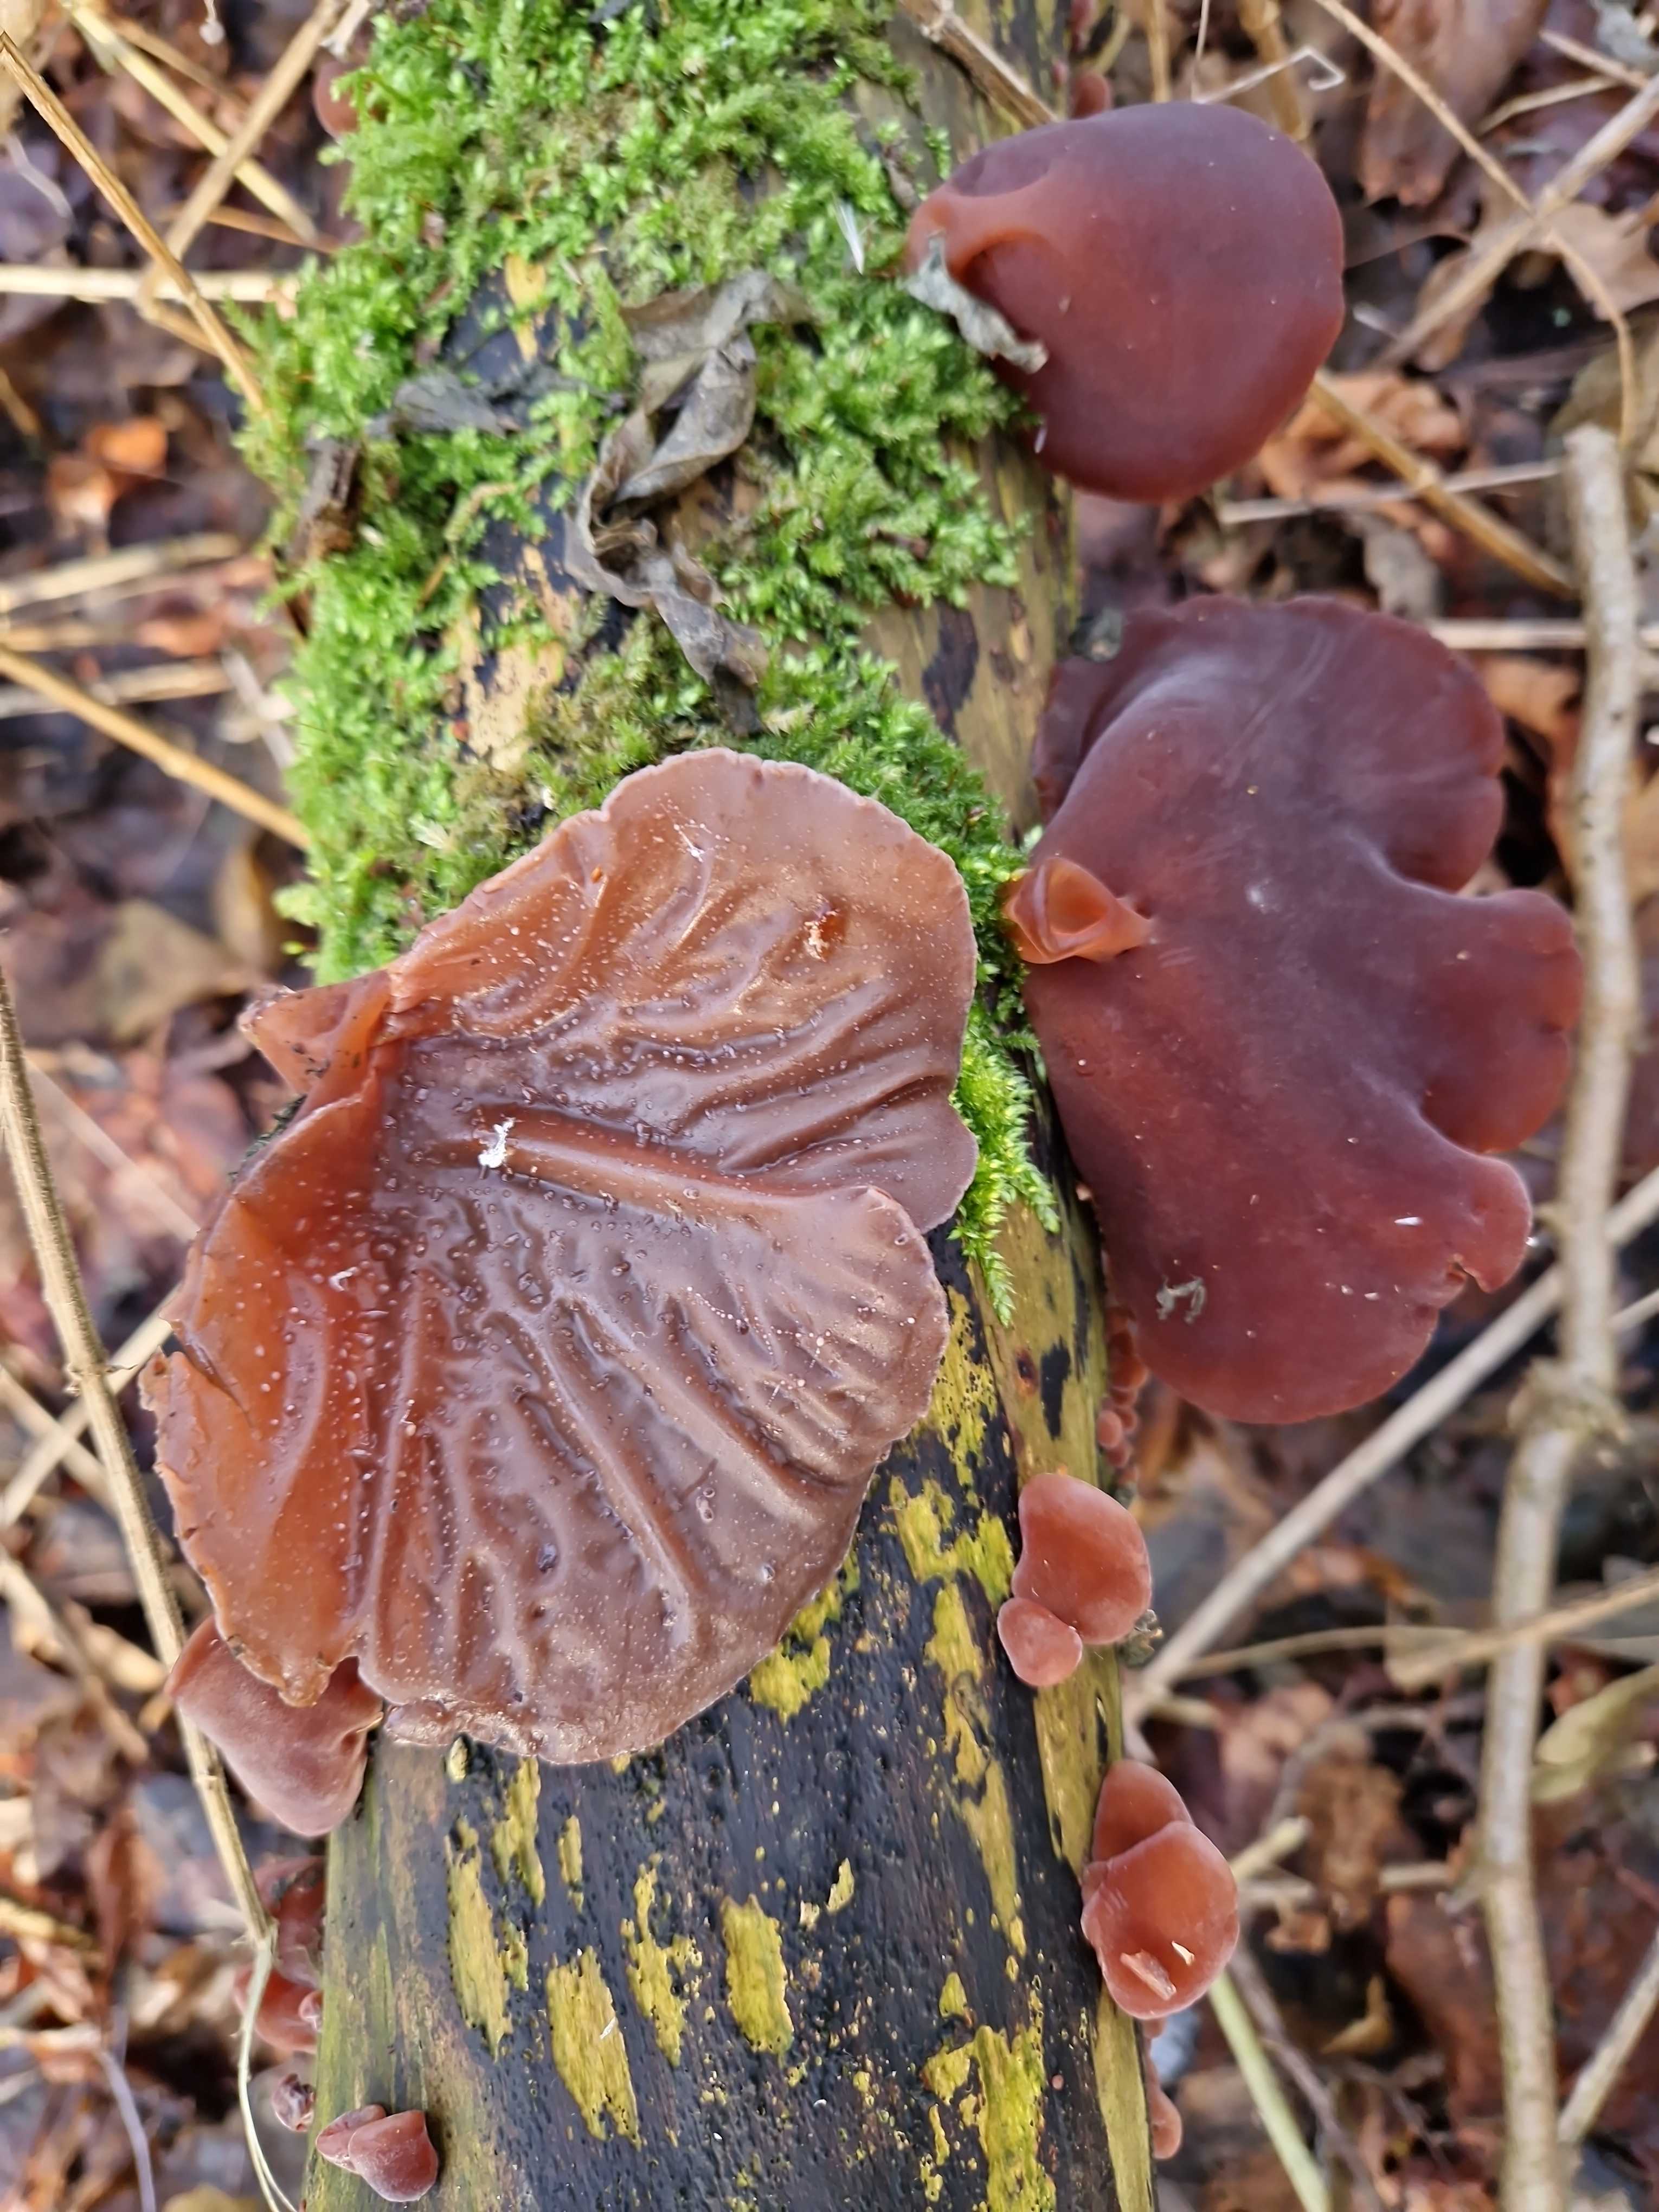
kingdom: Fungi
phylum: Basidiomycota
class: Agaricomycetes
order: Auriculariales
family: Auriculariaceae
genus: Auricularia
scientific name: Auricularia auricula-judae
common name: almindelig judasøre
